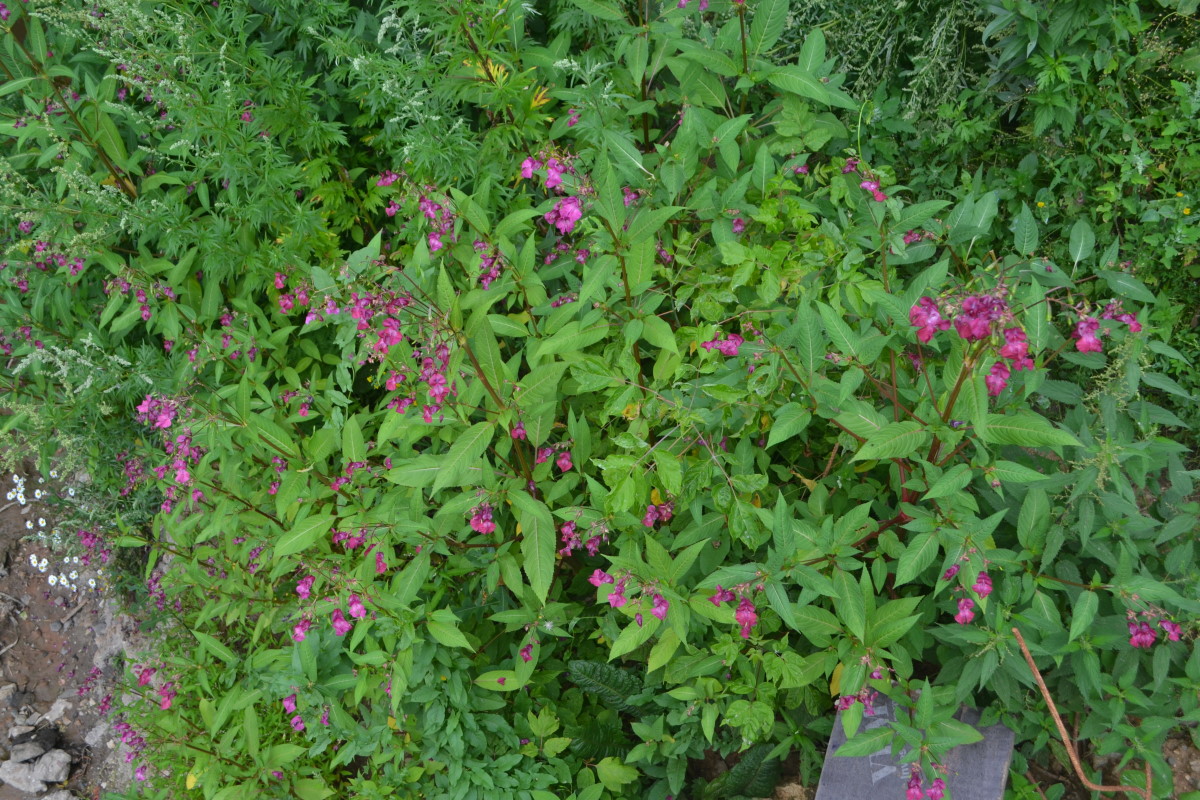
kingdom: Plantae
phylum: Tracheophyta
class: Magnoliopsida
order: Ericales
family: Balsaminaceae
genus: Impatiens
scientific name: Impatiens glandulifera
